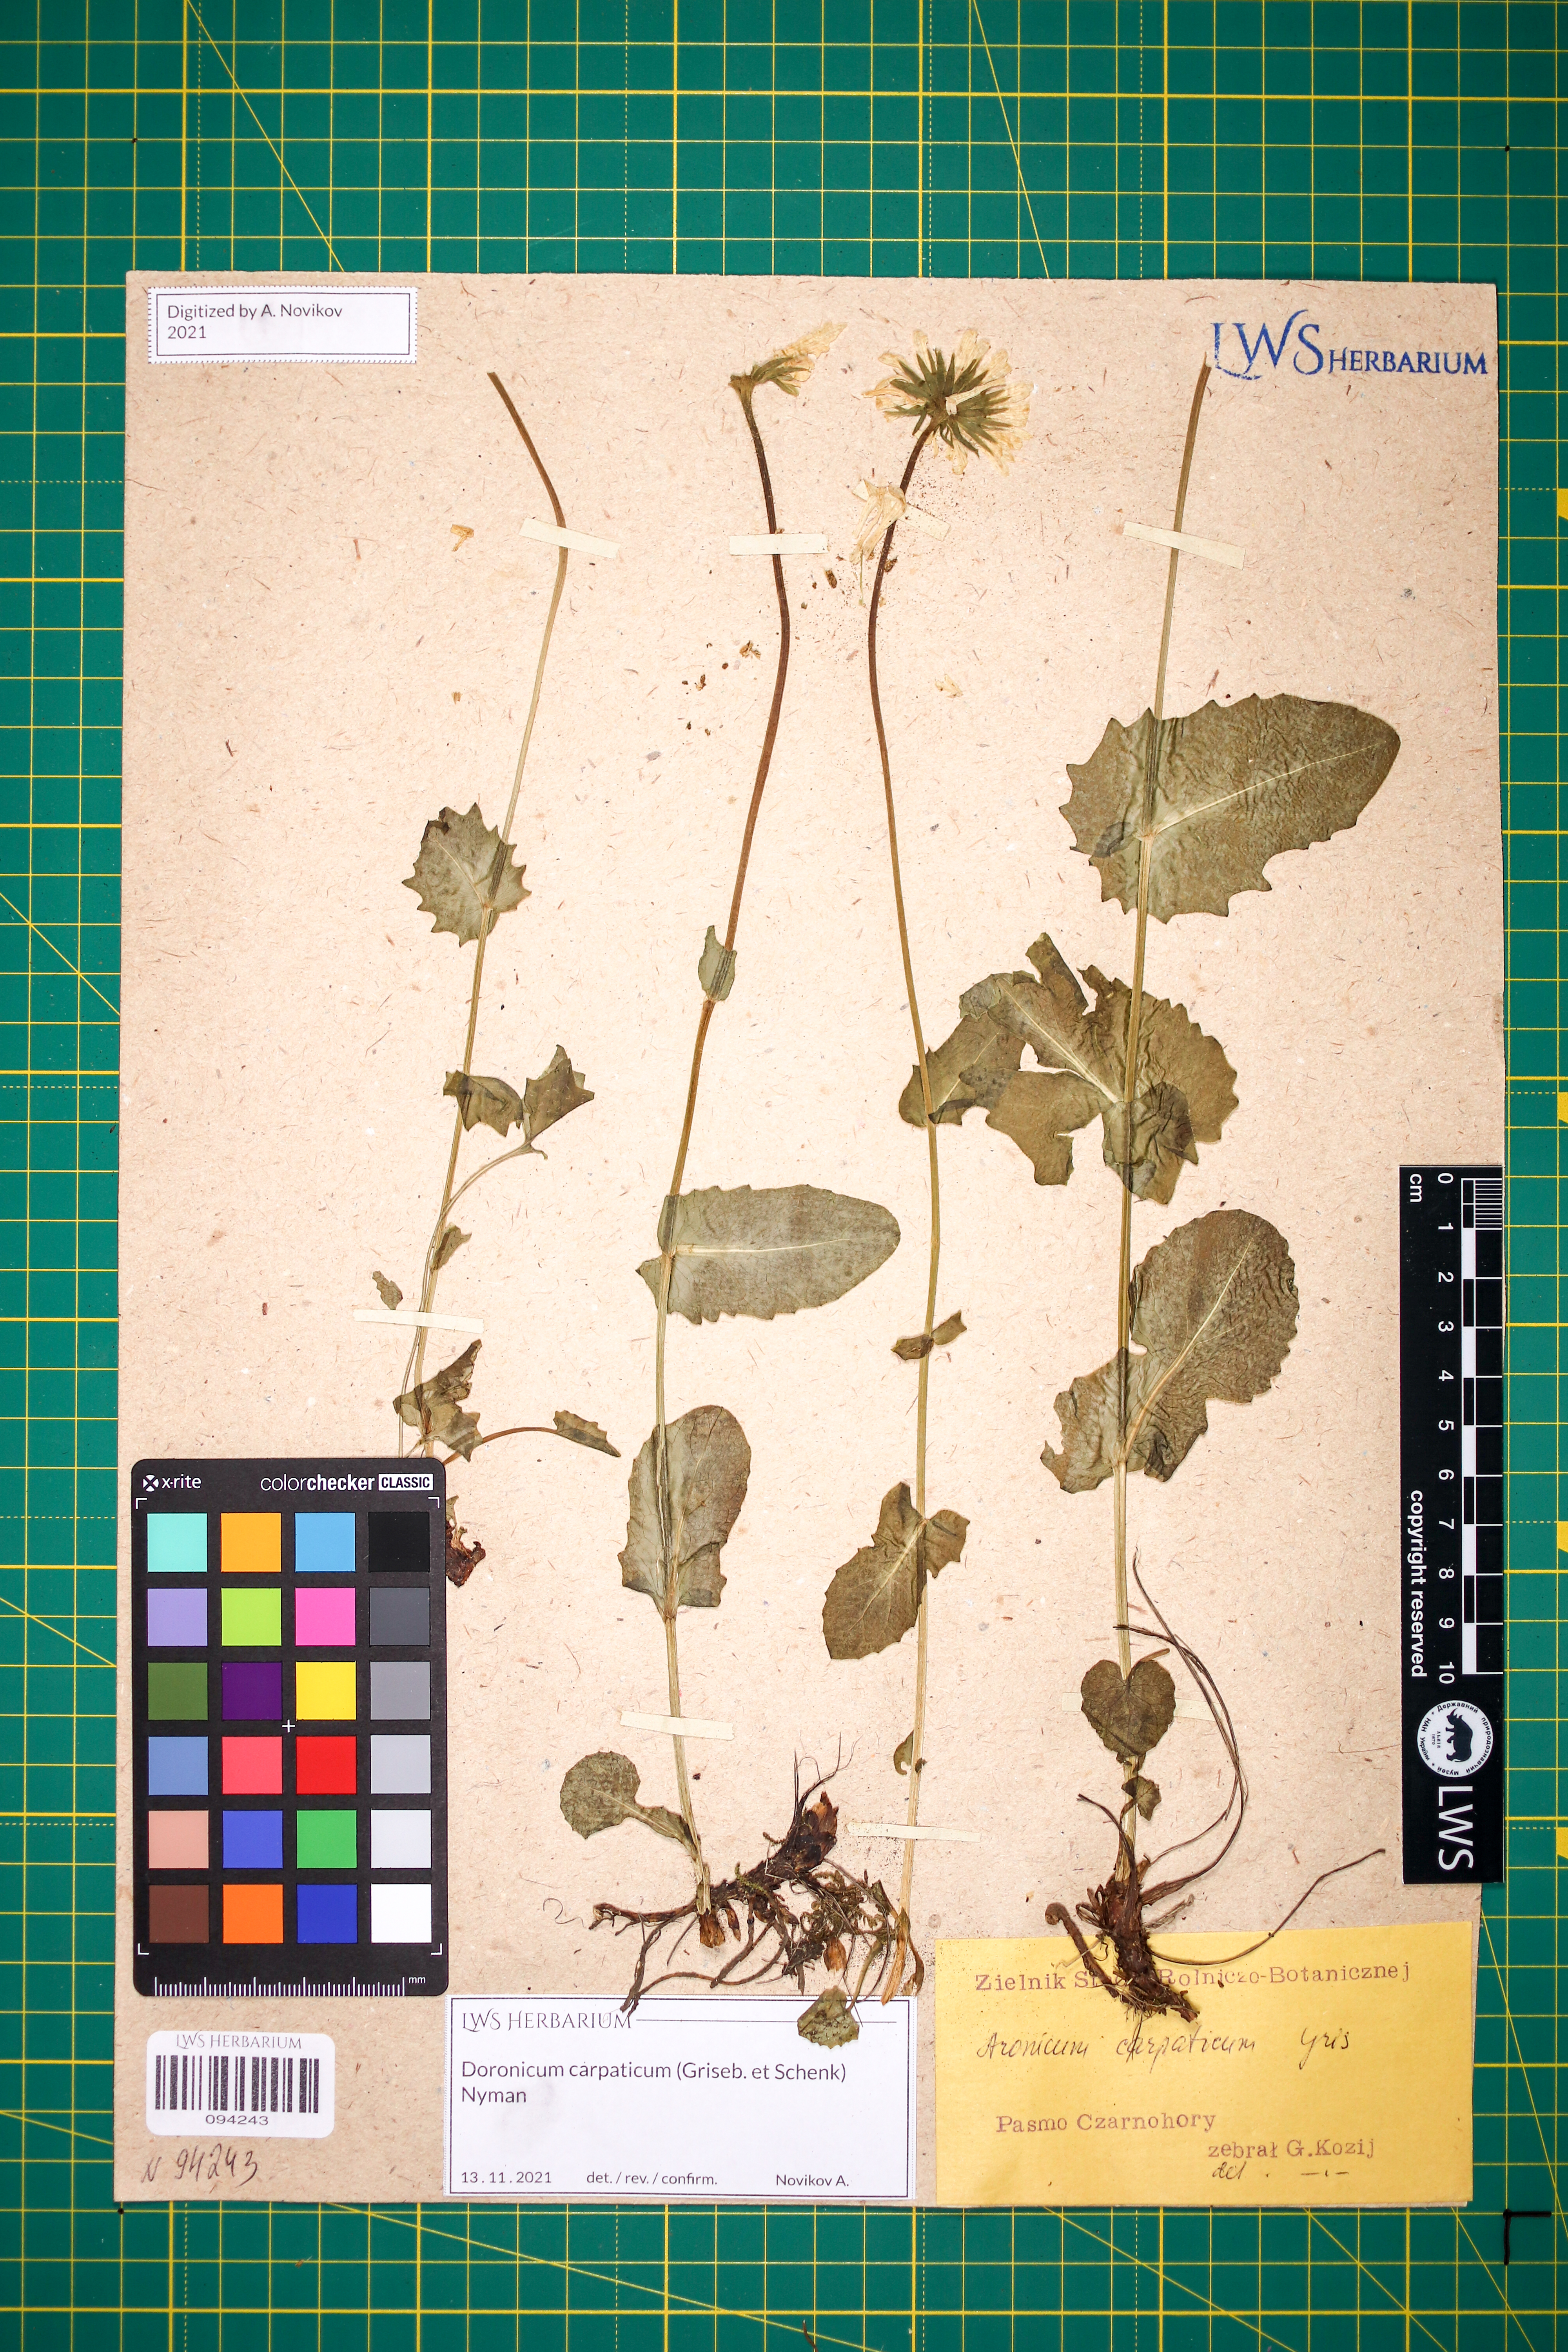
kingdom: Plantae
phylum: Tracheophyta
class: Magnoliopsida
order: Asterales
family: Asteraceae
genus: Doronicum
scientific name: Doronicum carpaticum
